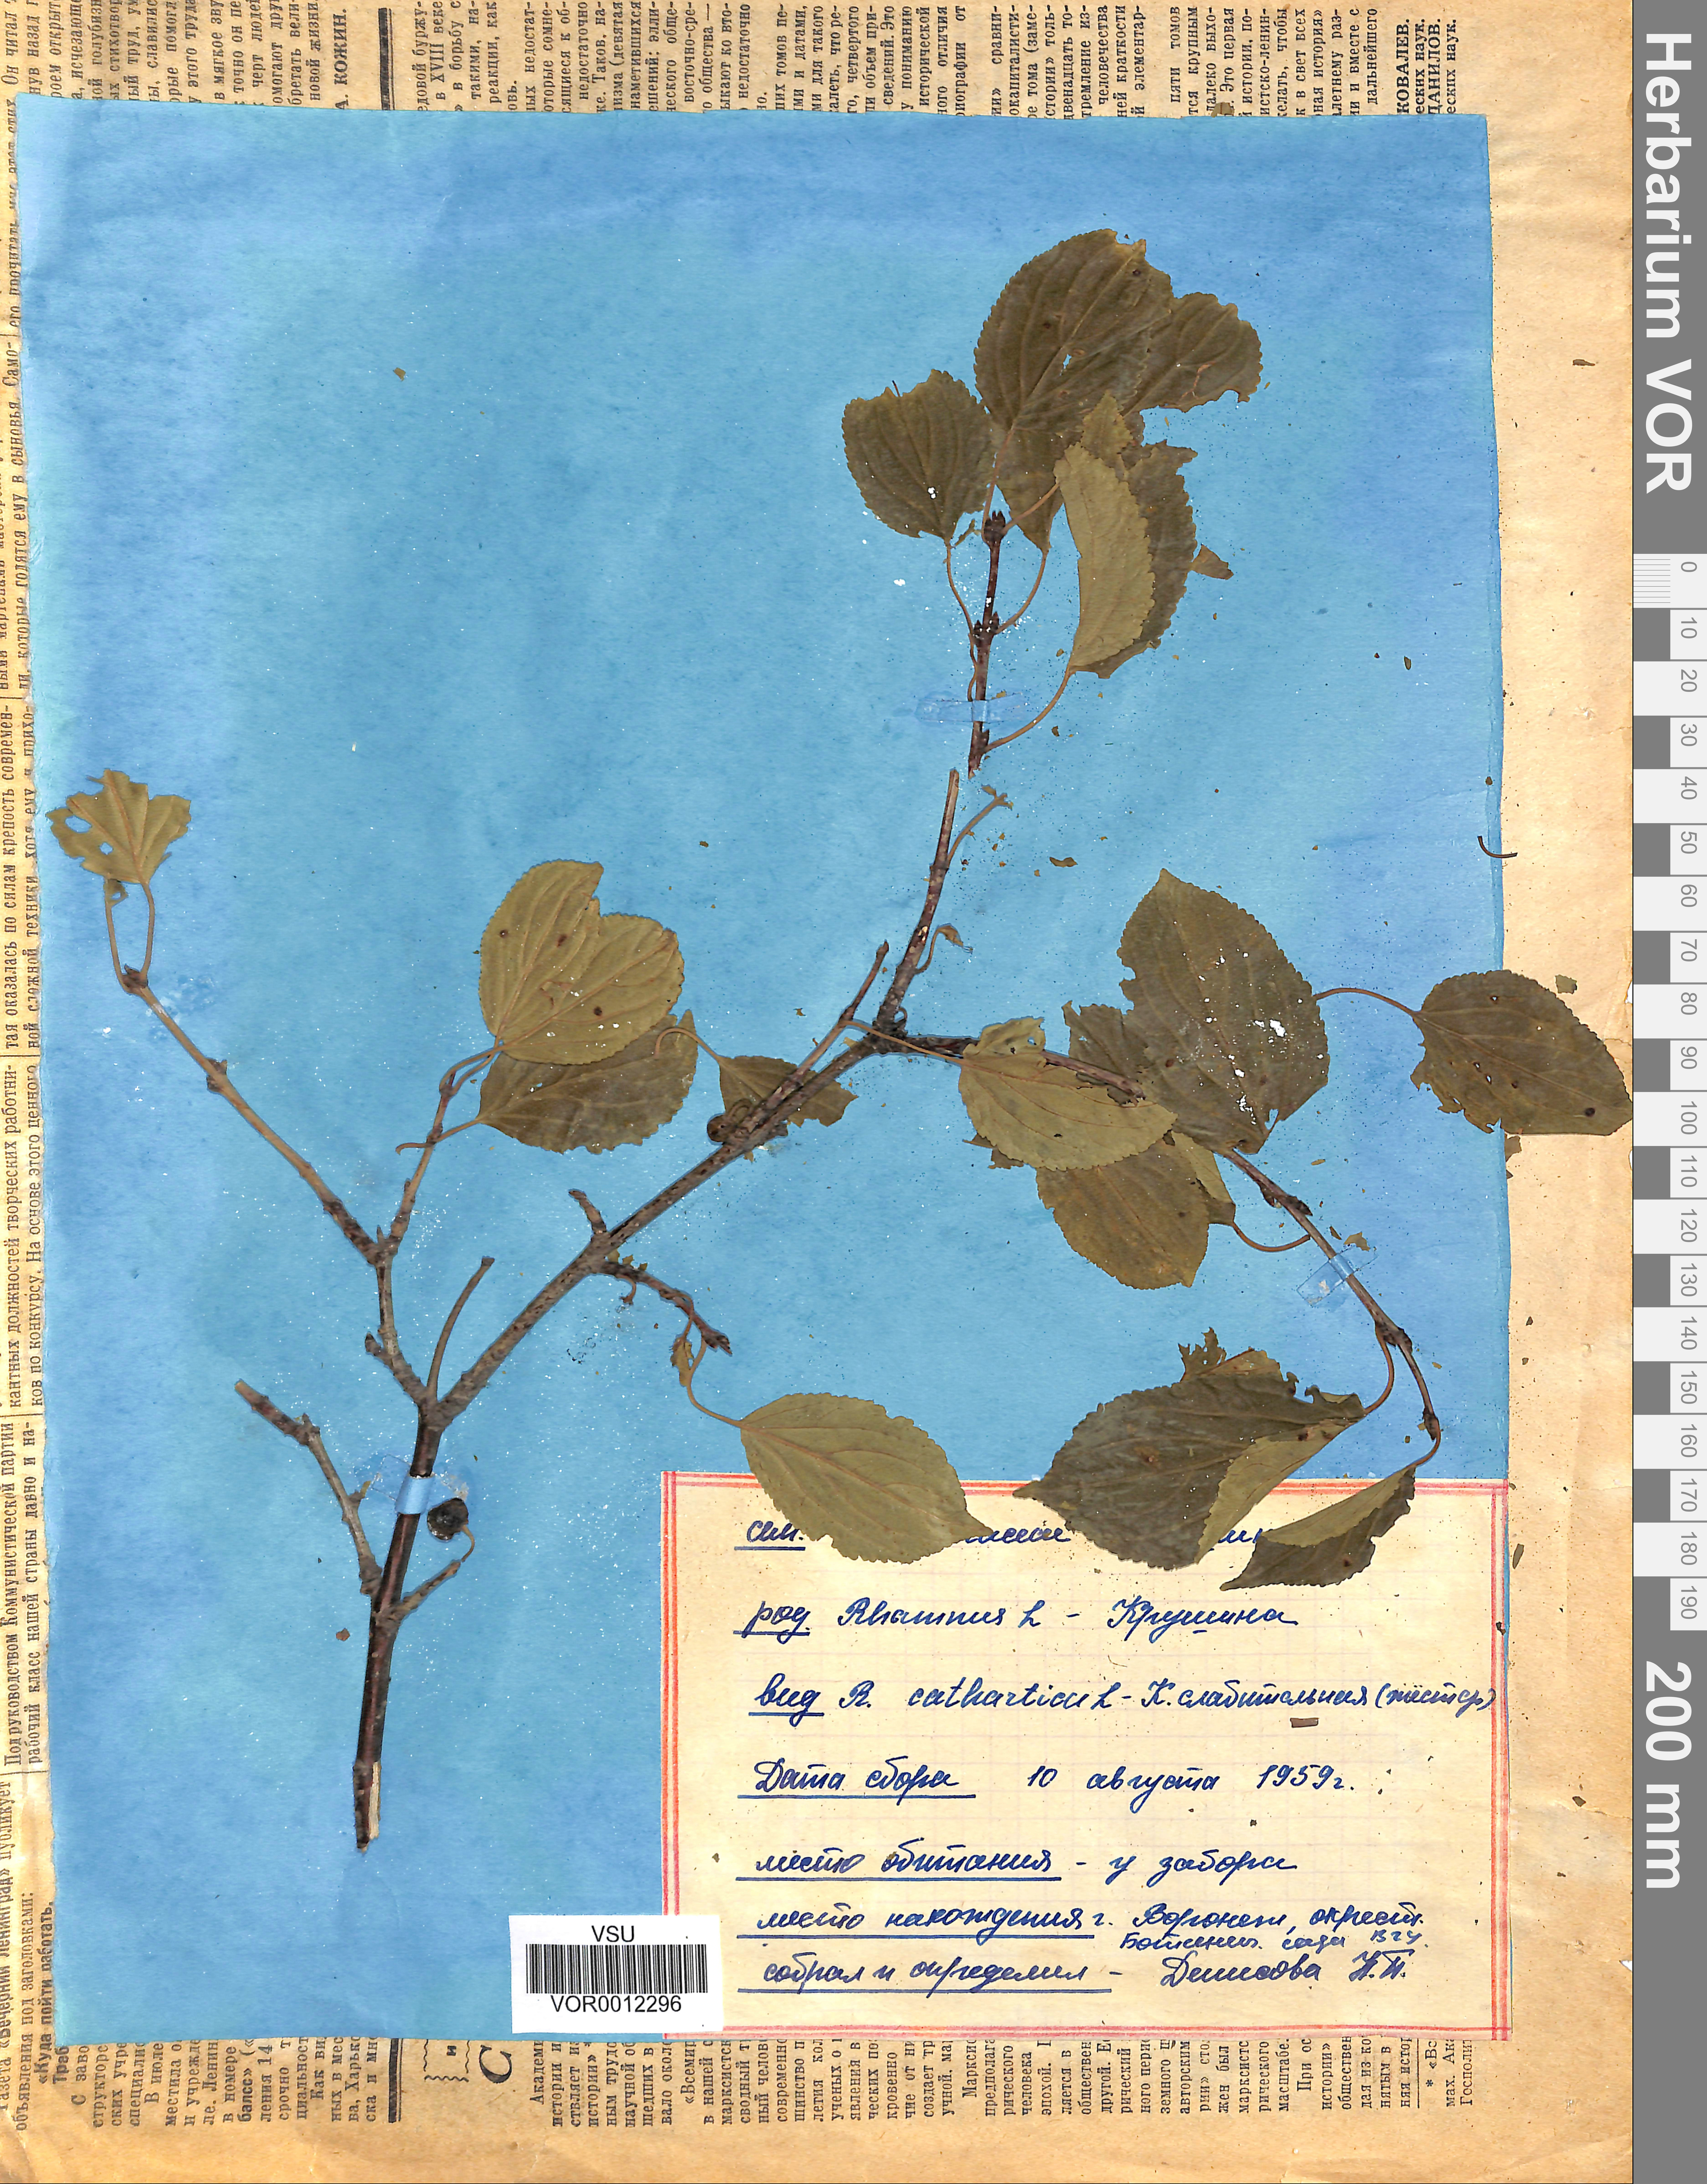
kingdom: Plantae
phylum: Tracheophyta
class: Magnoliopsida
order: Rosales
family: Rhamnaceae
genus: Rhamnus
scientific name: Rhamnus cathartica
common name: Common buckthorn
